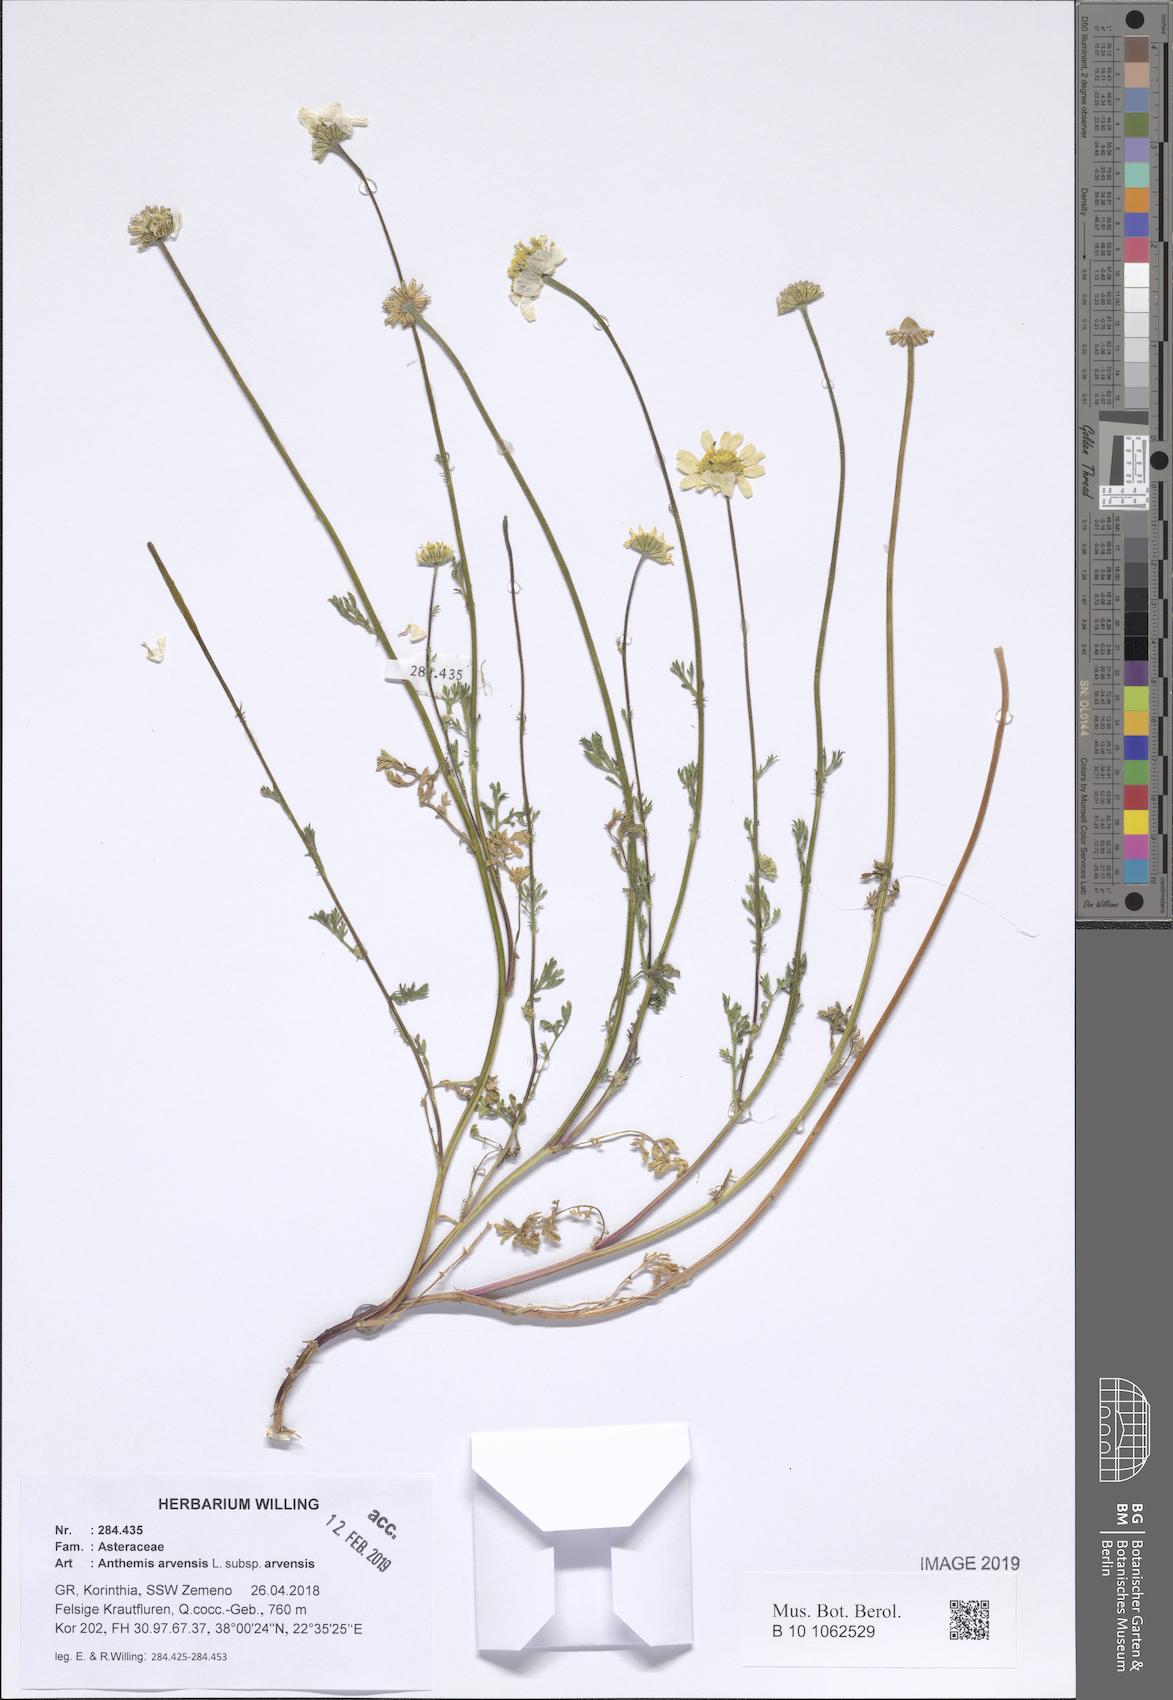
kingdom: Plantae
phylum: Tracheophyta
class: Magnoliopsida
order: Asterales
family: Asteraceae
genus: Anthemis
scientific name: Anthemis arvensis
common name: Corn chamomile
